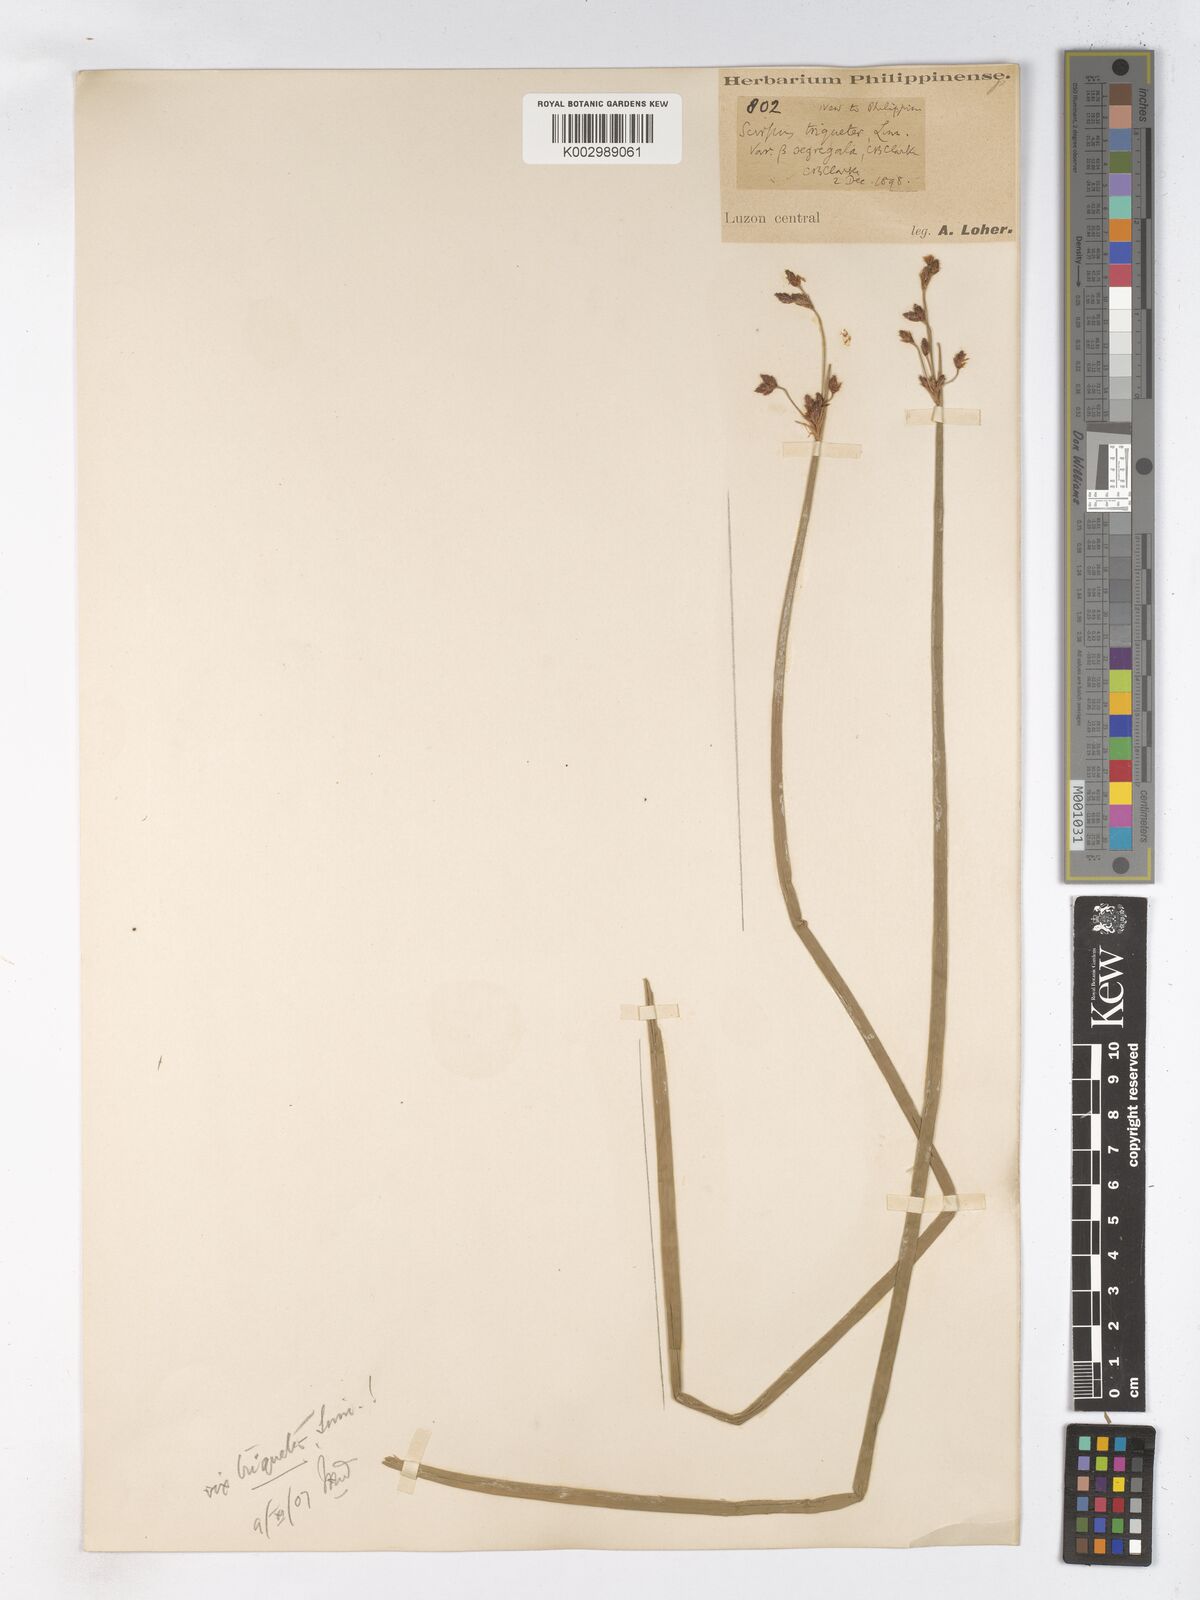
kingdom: Plantae
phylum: Tracheophyta
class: Liliopsida
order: Poales
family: Cyperaceae
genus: Schoenoplectus
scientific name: Schoenoplectus tabernaemontani
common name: Grey club-rush
